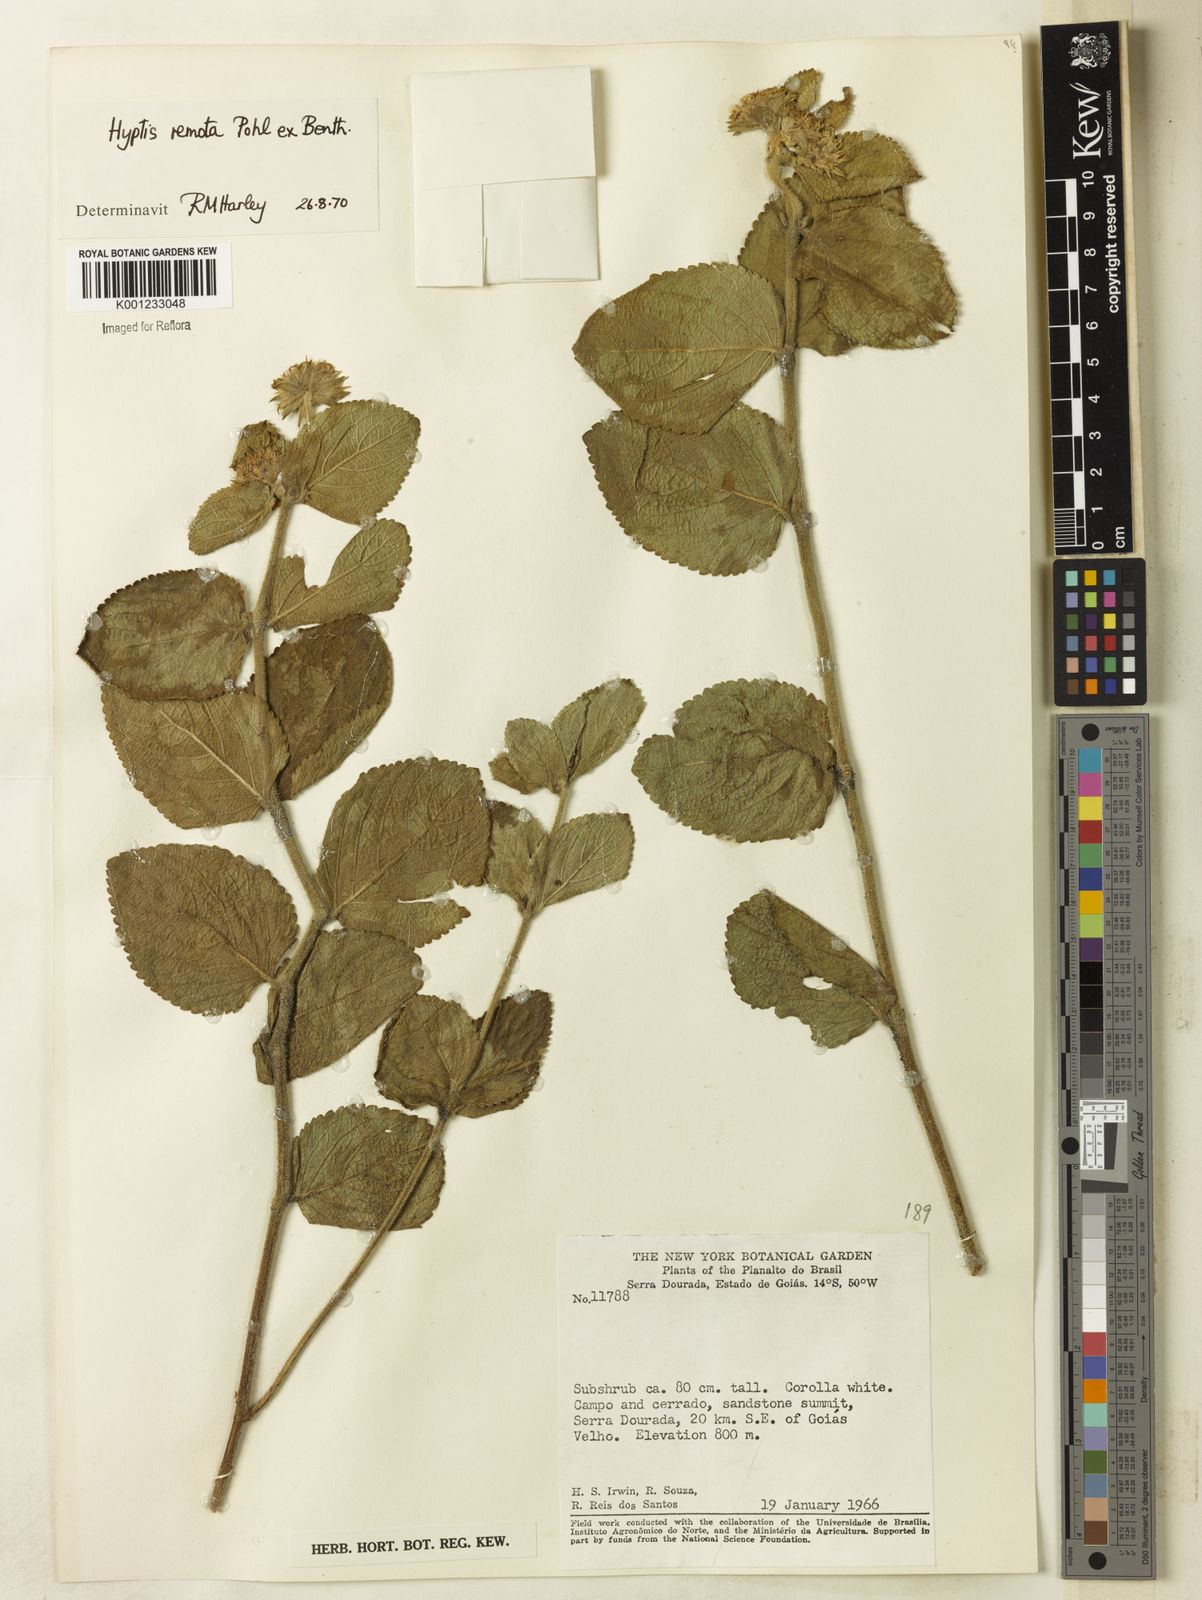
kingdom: Plantae
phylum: Tracheophyta
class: Magnoliopsida
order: Lamiales
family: Lamiaceae
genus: Hyptis
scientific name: Hyptis remota
